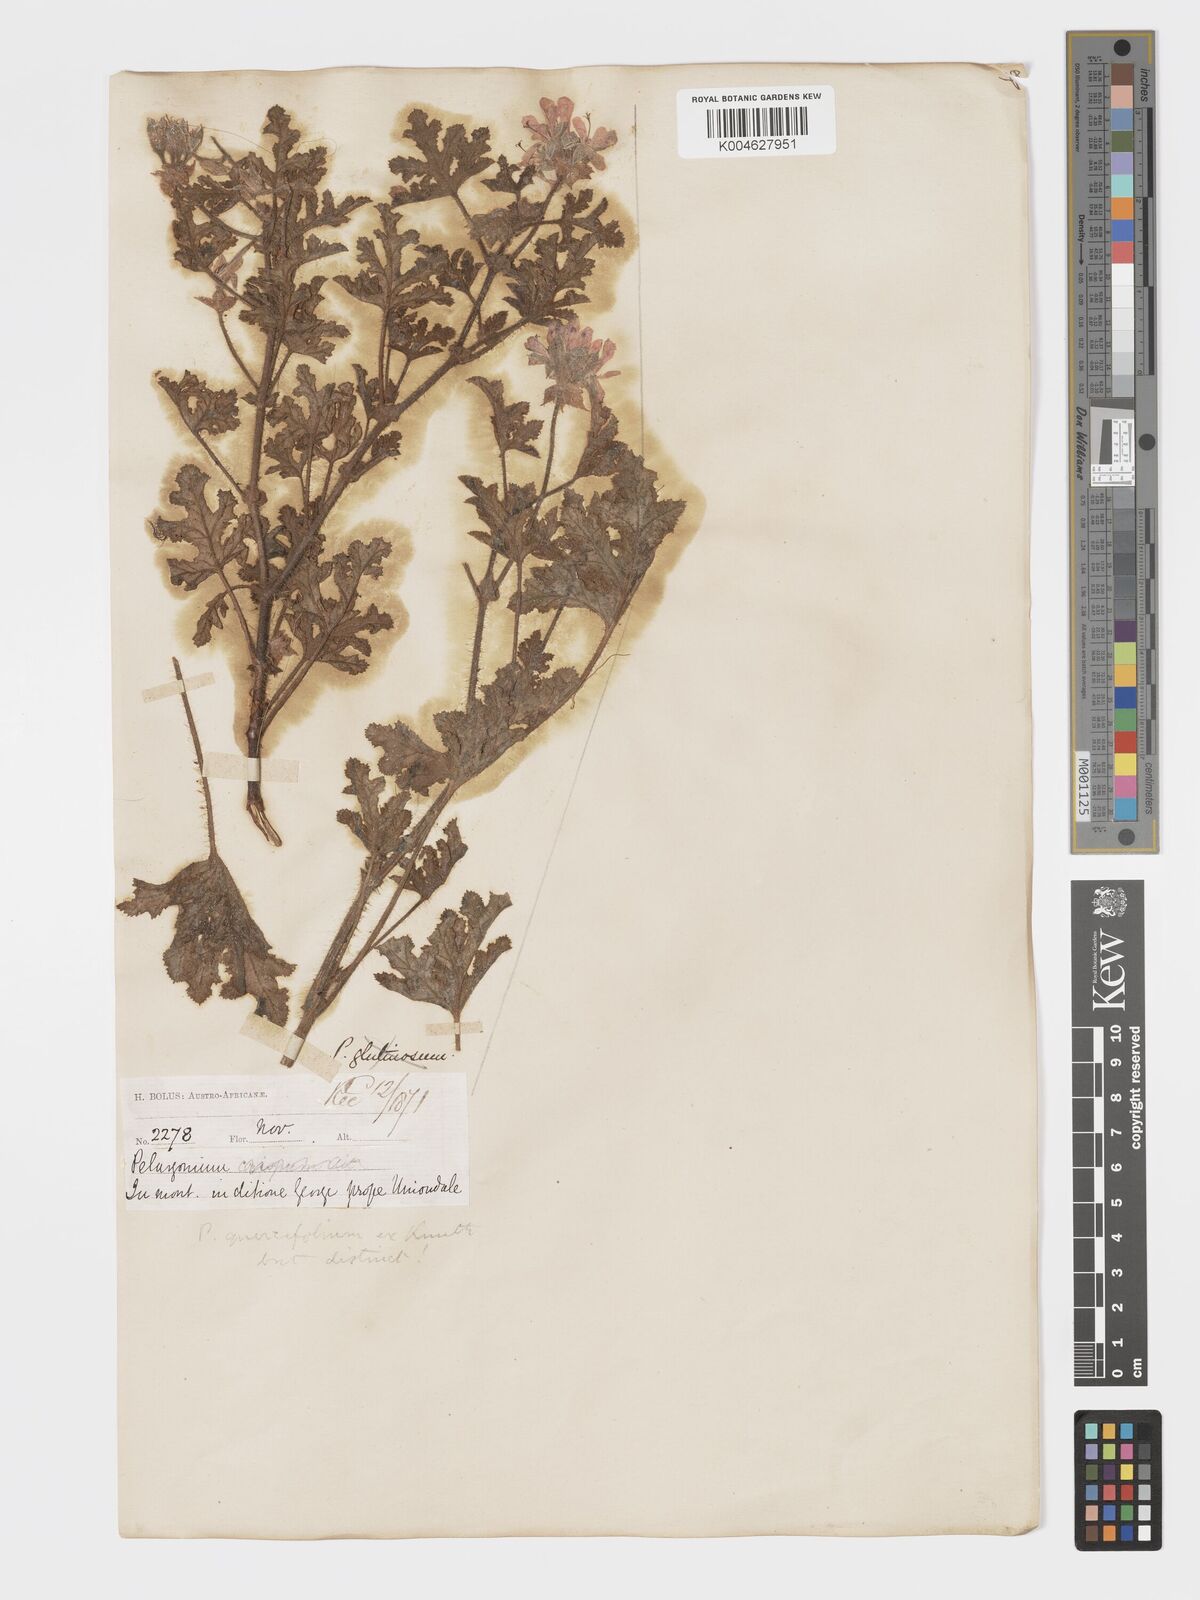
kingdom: Plantae
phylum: Tracheophyta
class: Magnoliopsida
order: Geraniales
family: Geraniaceae
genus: Pelargonium
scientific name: Pelargonium quercifolium
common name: Oakleaf geranium
